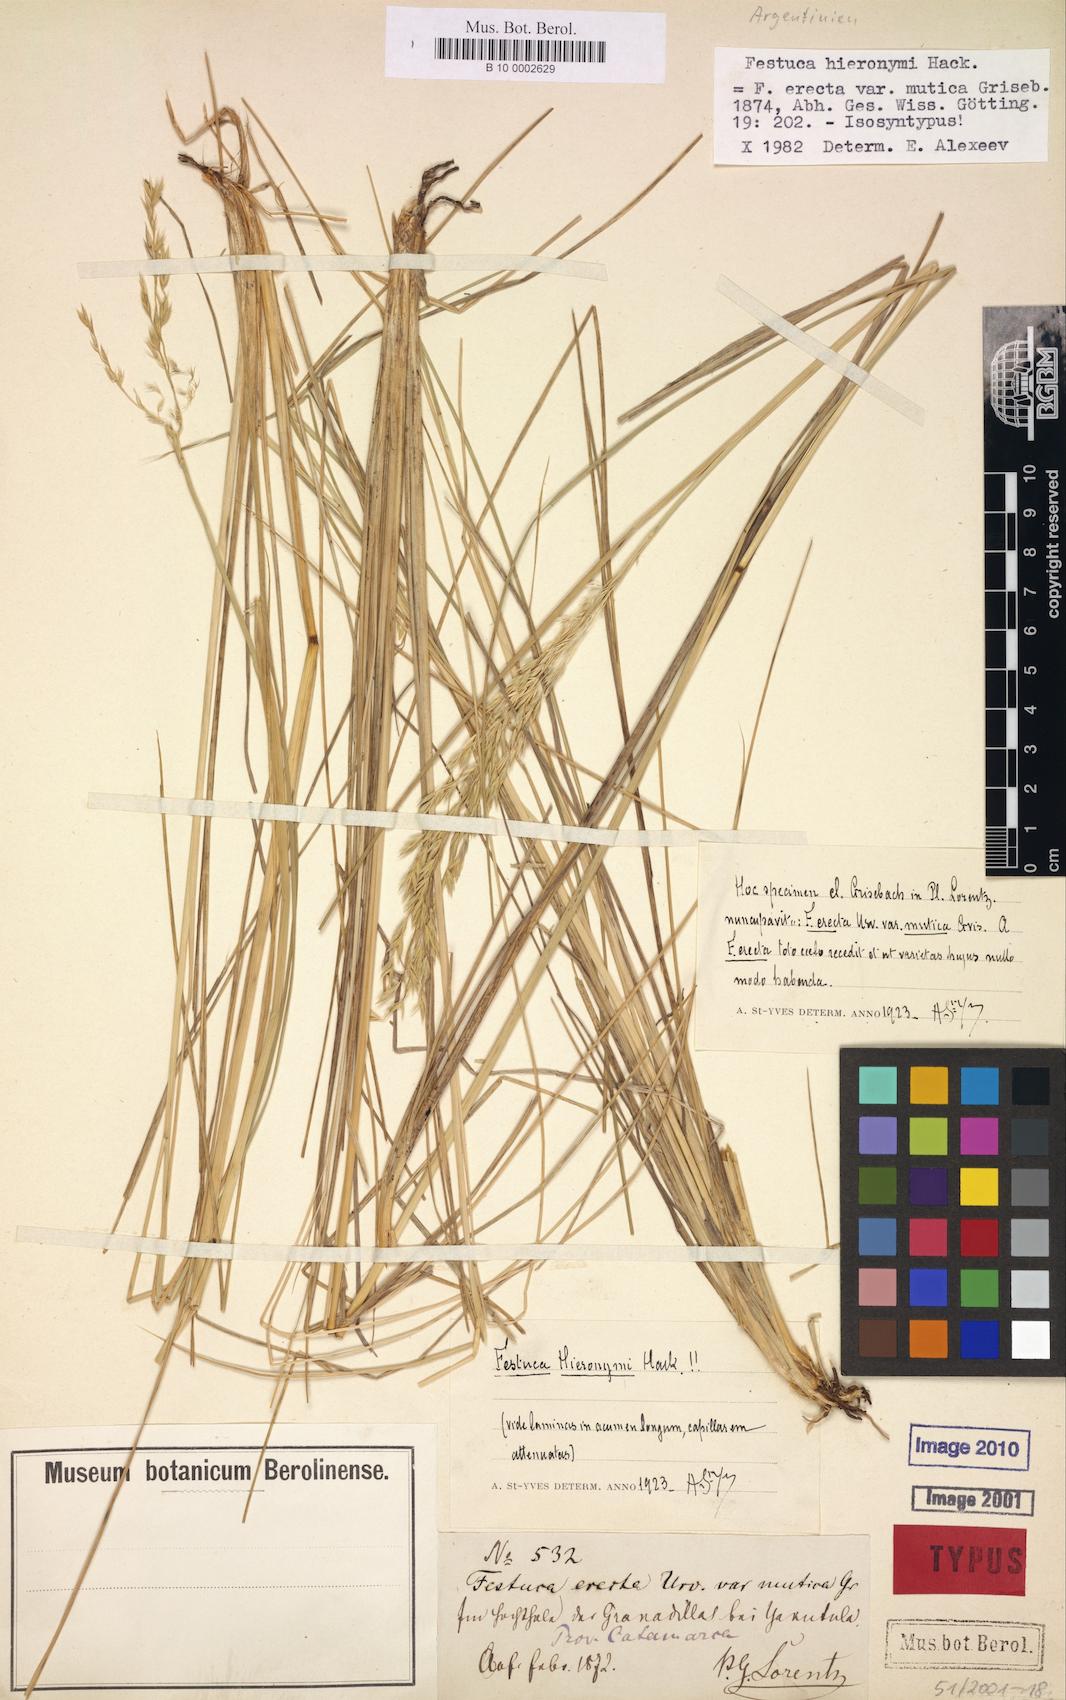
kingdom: Plantae
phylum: Tracheophyta
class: Liliopsida
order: Poales
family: Poaceae
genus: Festuca
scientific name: Festuca hieronymi
